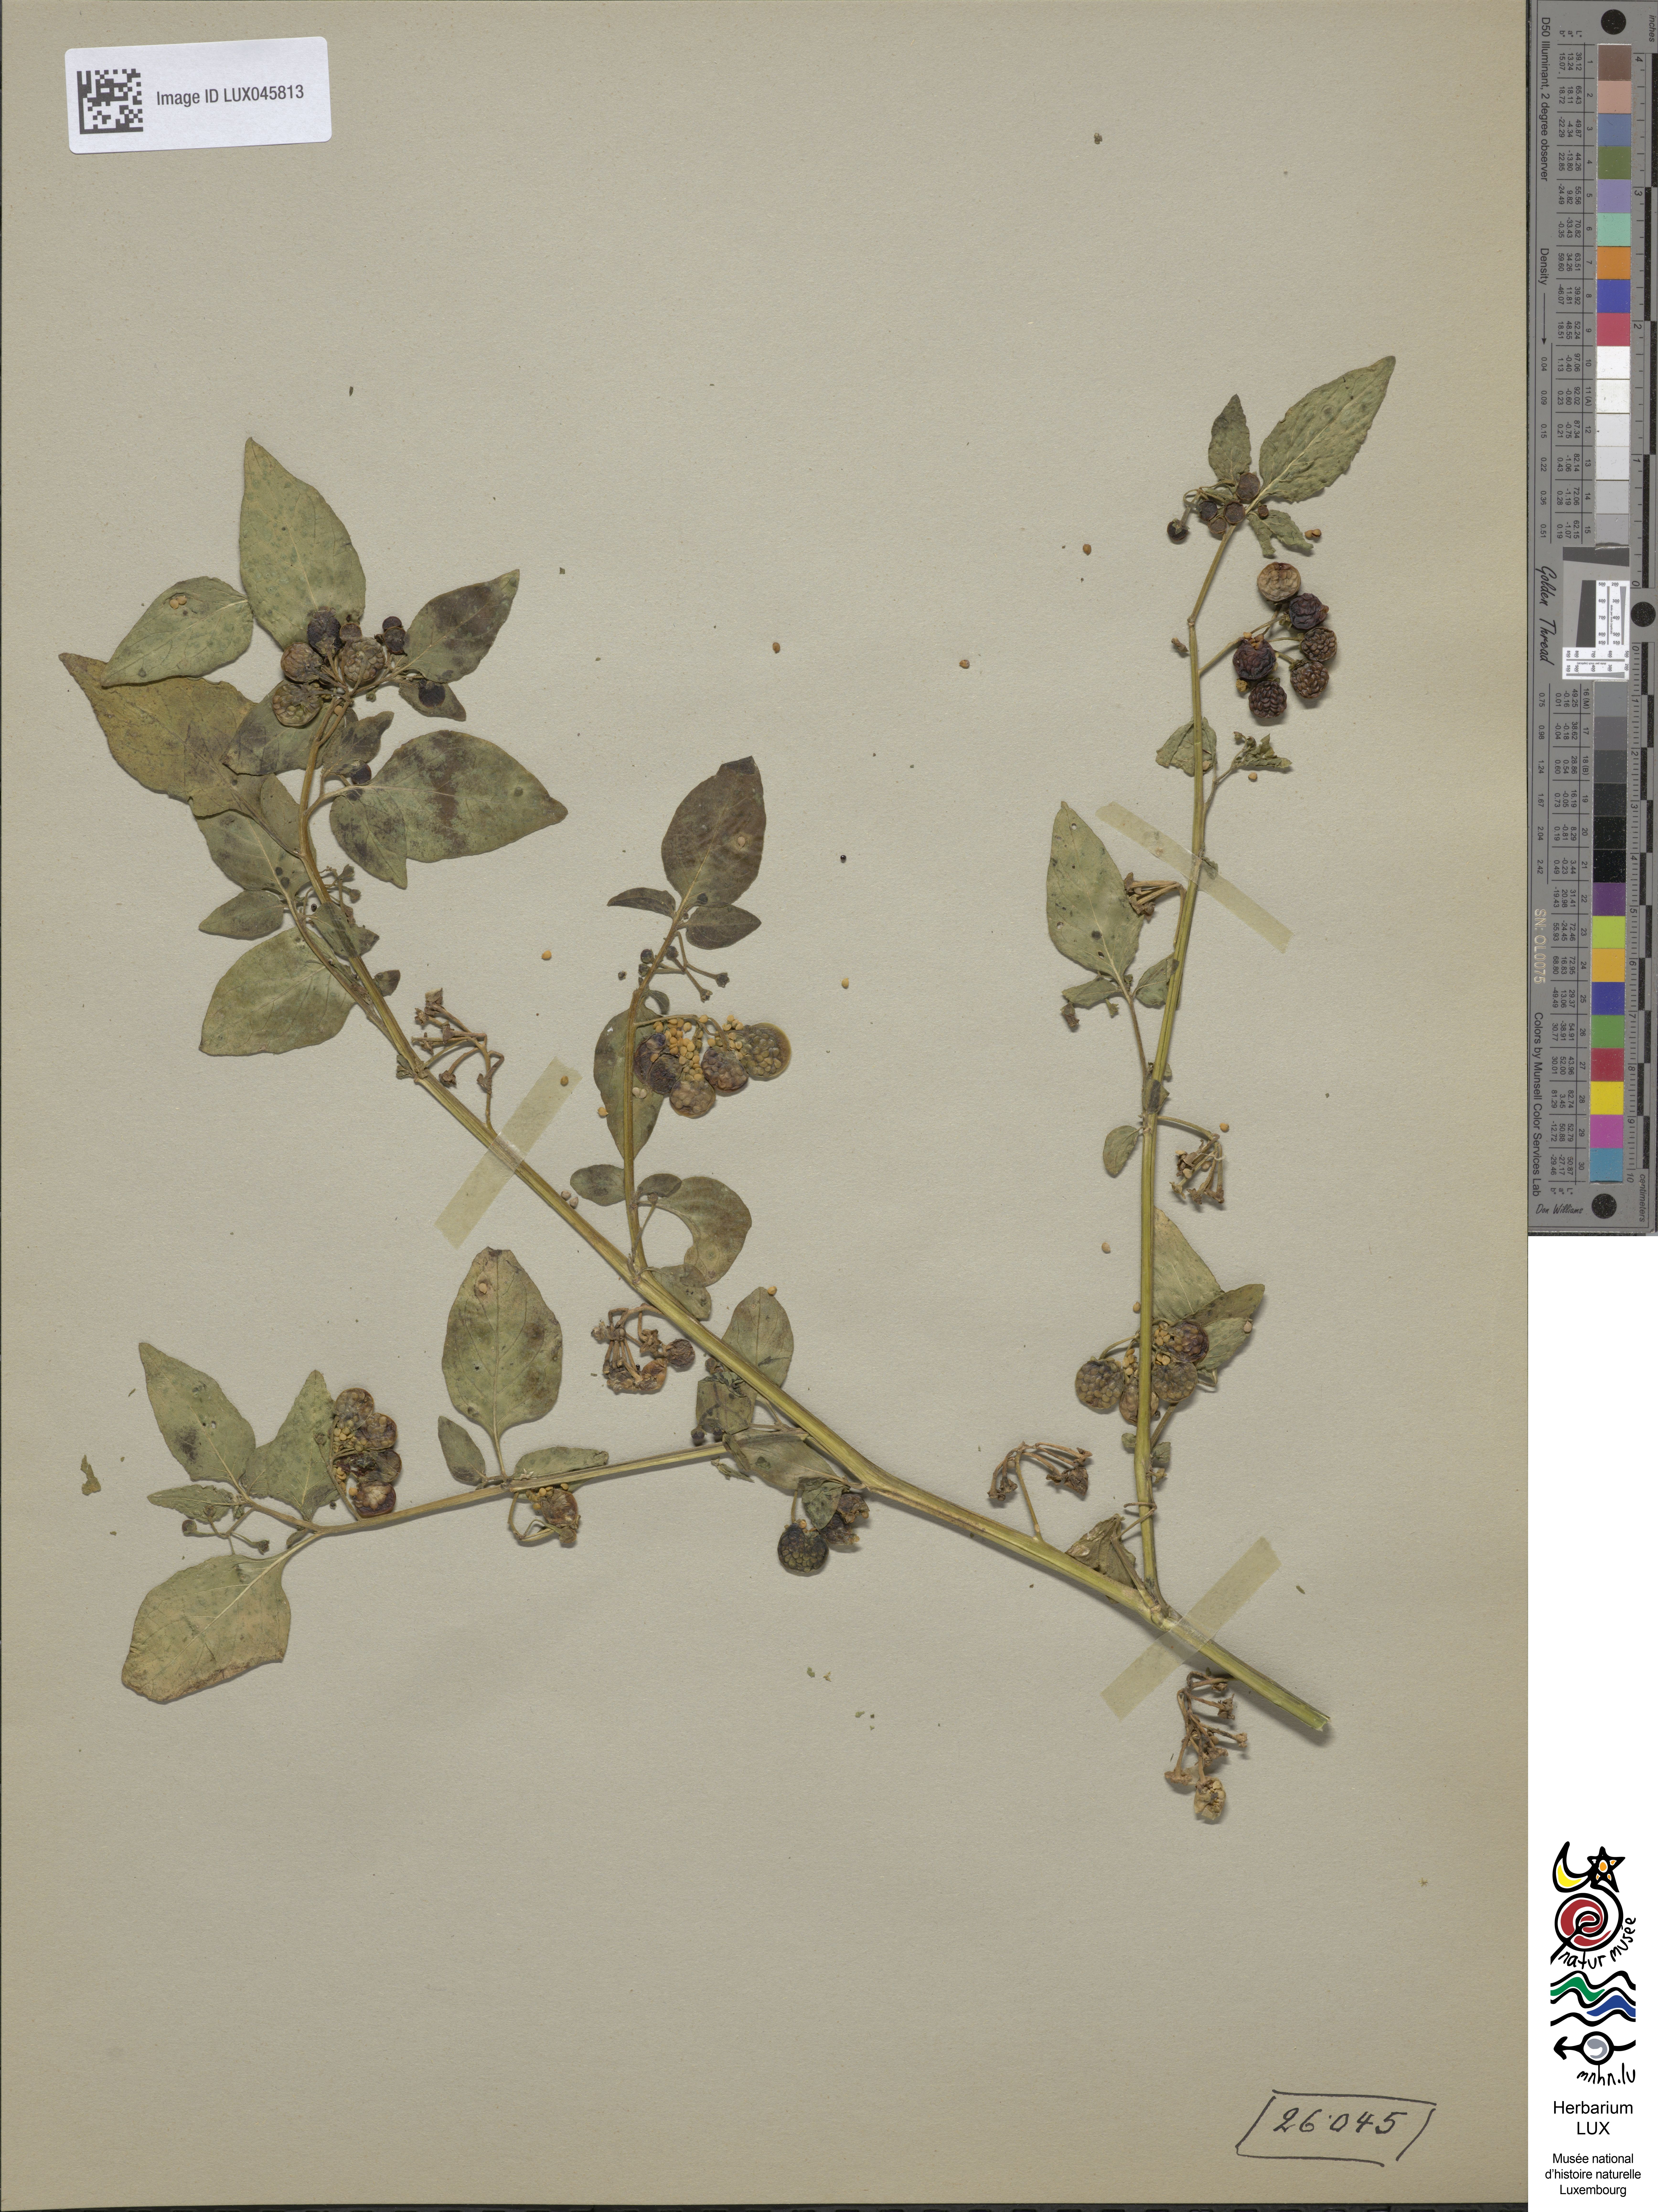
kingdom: Plantae
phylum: Tracheophyta
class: Magnoliopsida
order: Solanales
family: Solanaceae
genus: Solanum
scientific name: Solanum nigrum
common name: Black nightshade
